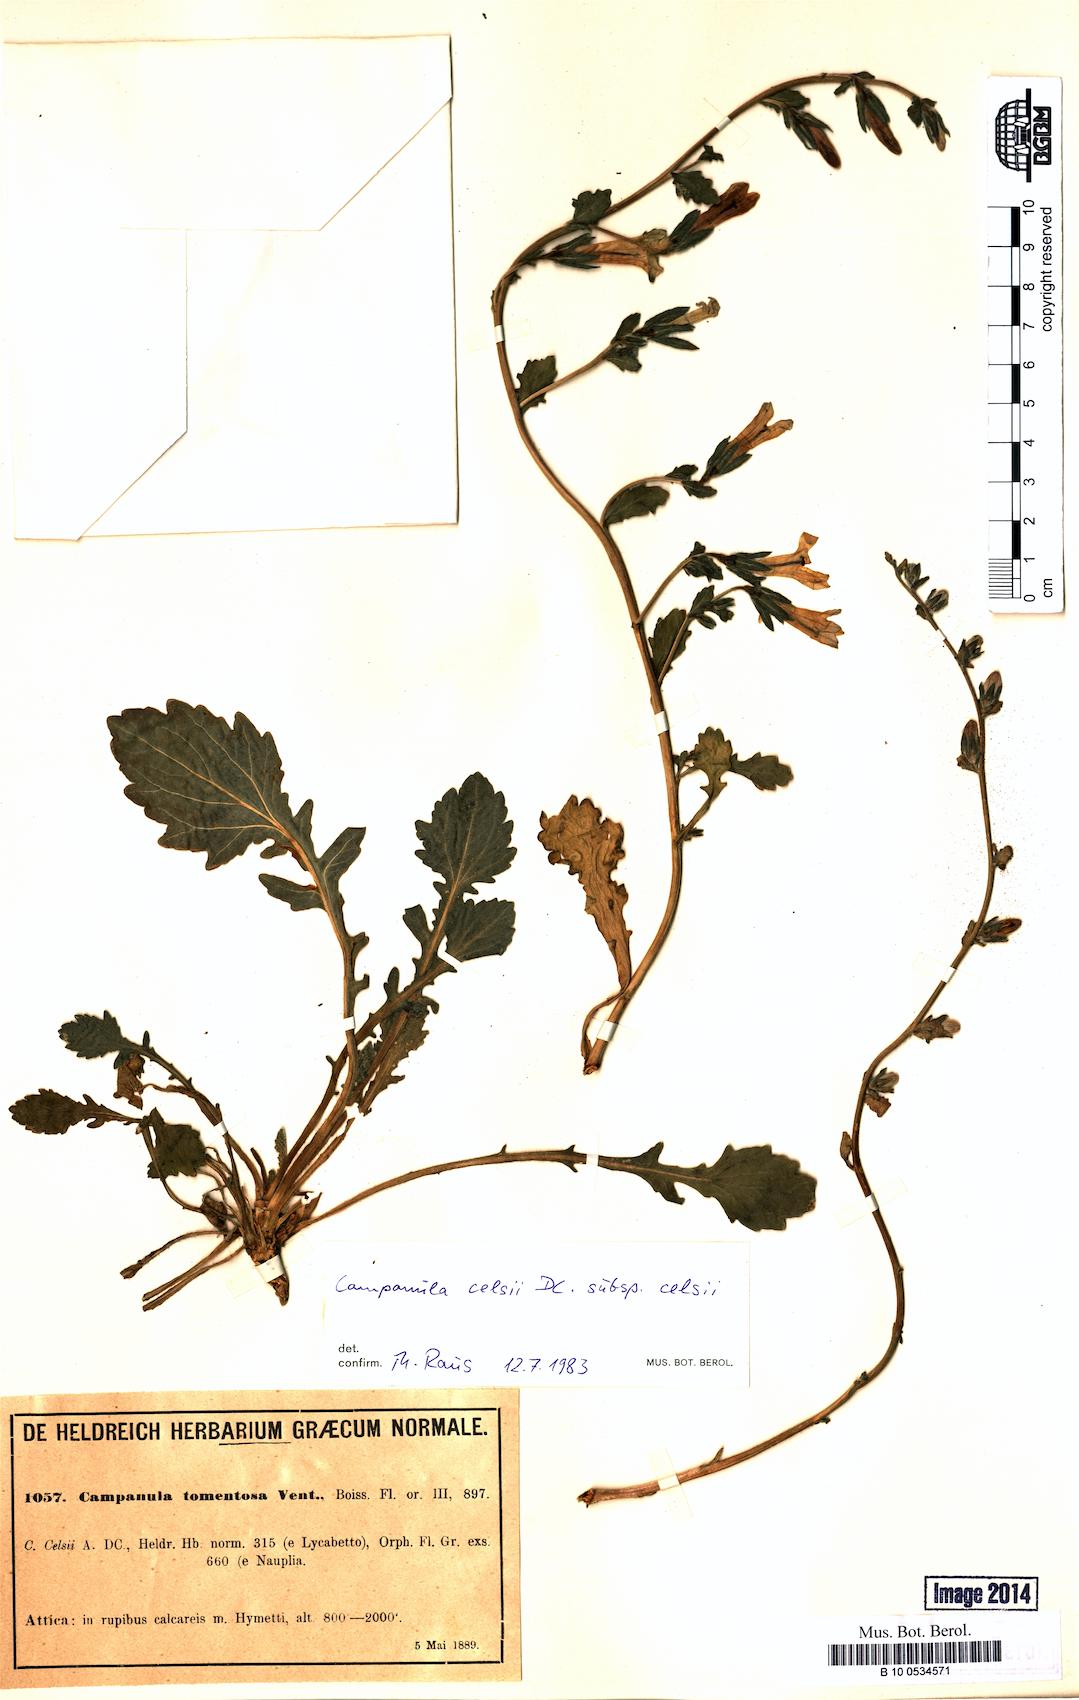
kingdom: Plantae
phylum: Tracheophyta
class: Magnoliopsida
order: Asterales
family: Campanulaceae
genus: Campanula
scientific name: Campanula celsii
